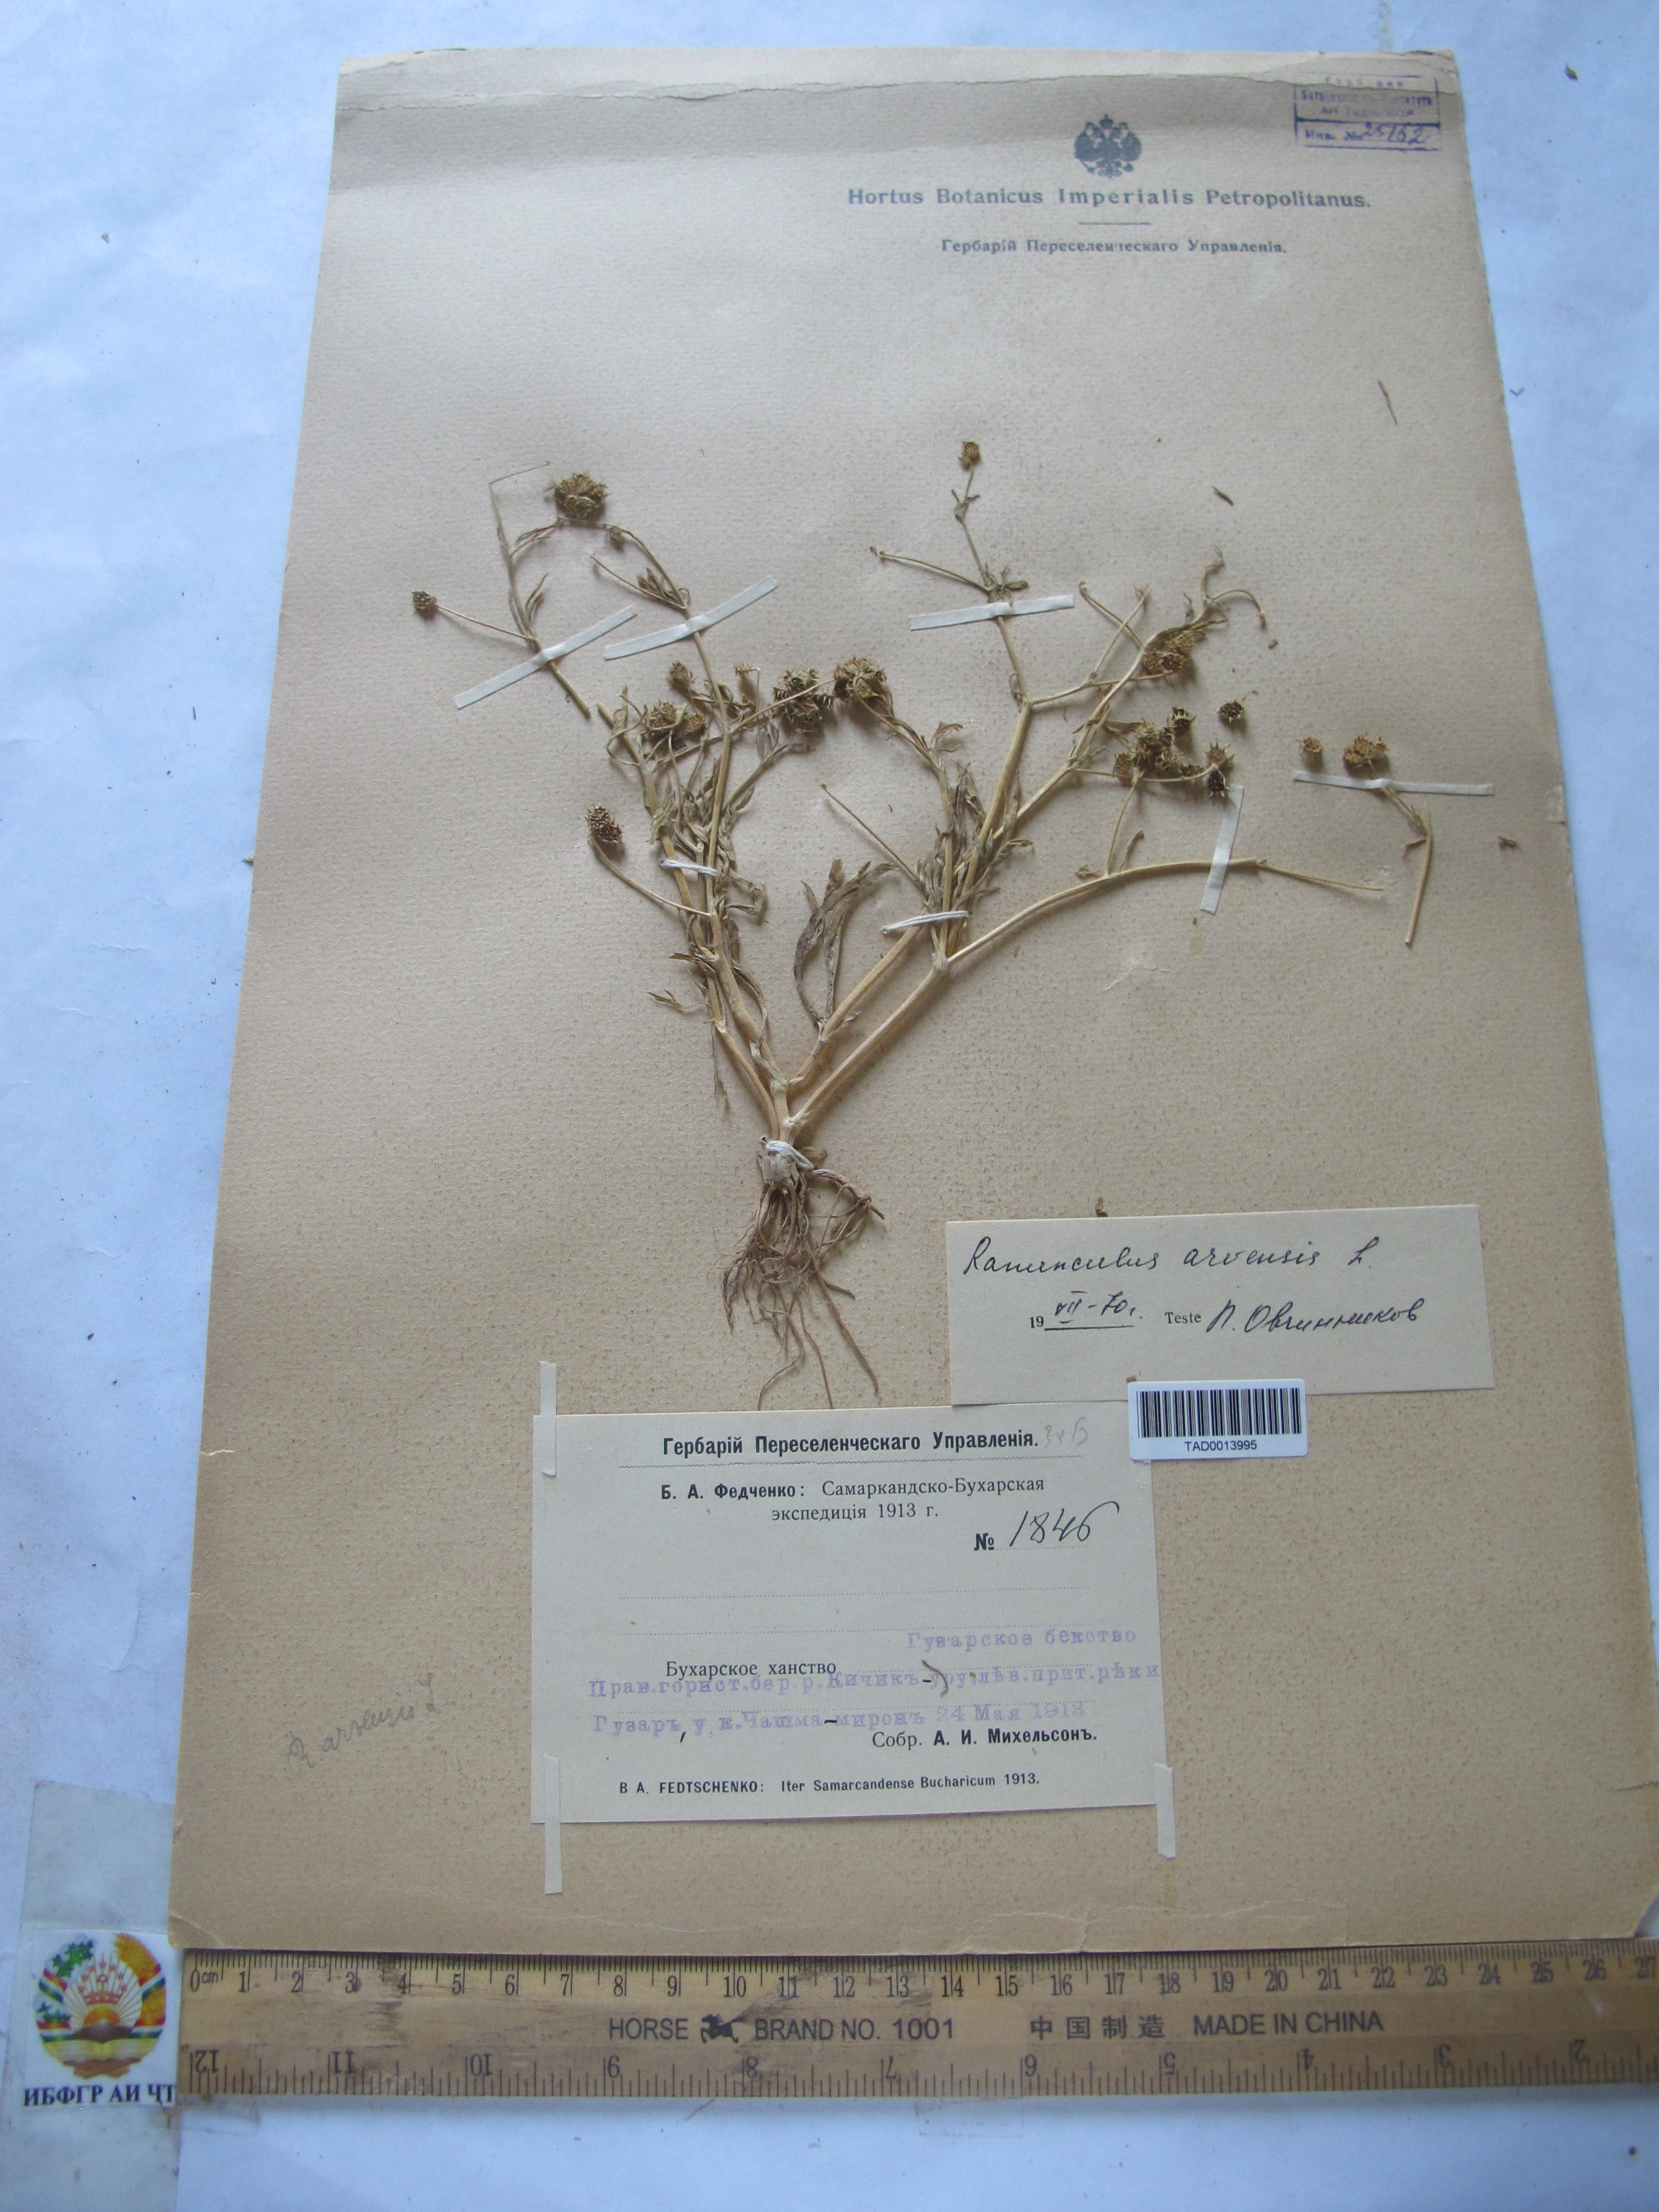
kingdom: Plantae
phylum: Tracheophyta
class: Magnoliopsida
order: Ranunculales
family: Ranunculaceae
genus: Ranunculus
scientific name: Ranunculus arvensis
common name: Corn buttercup
